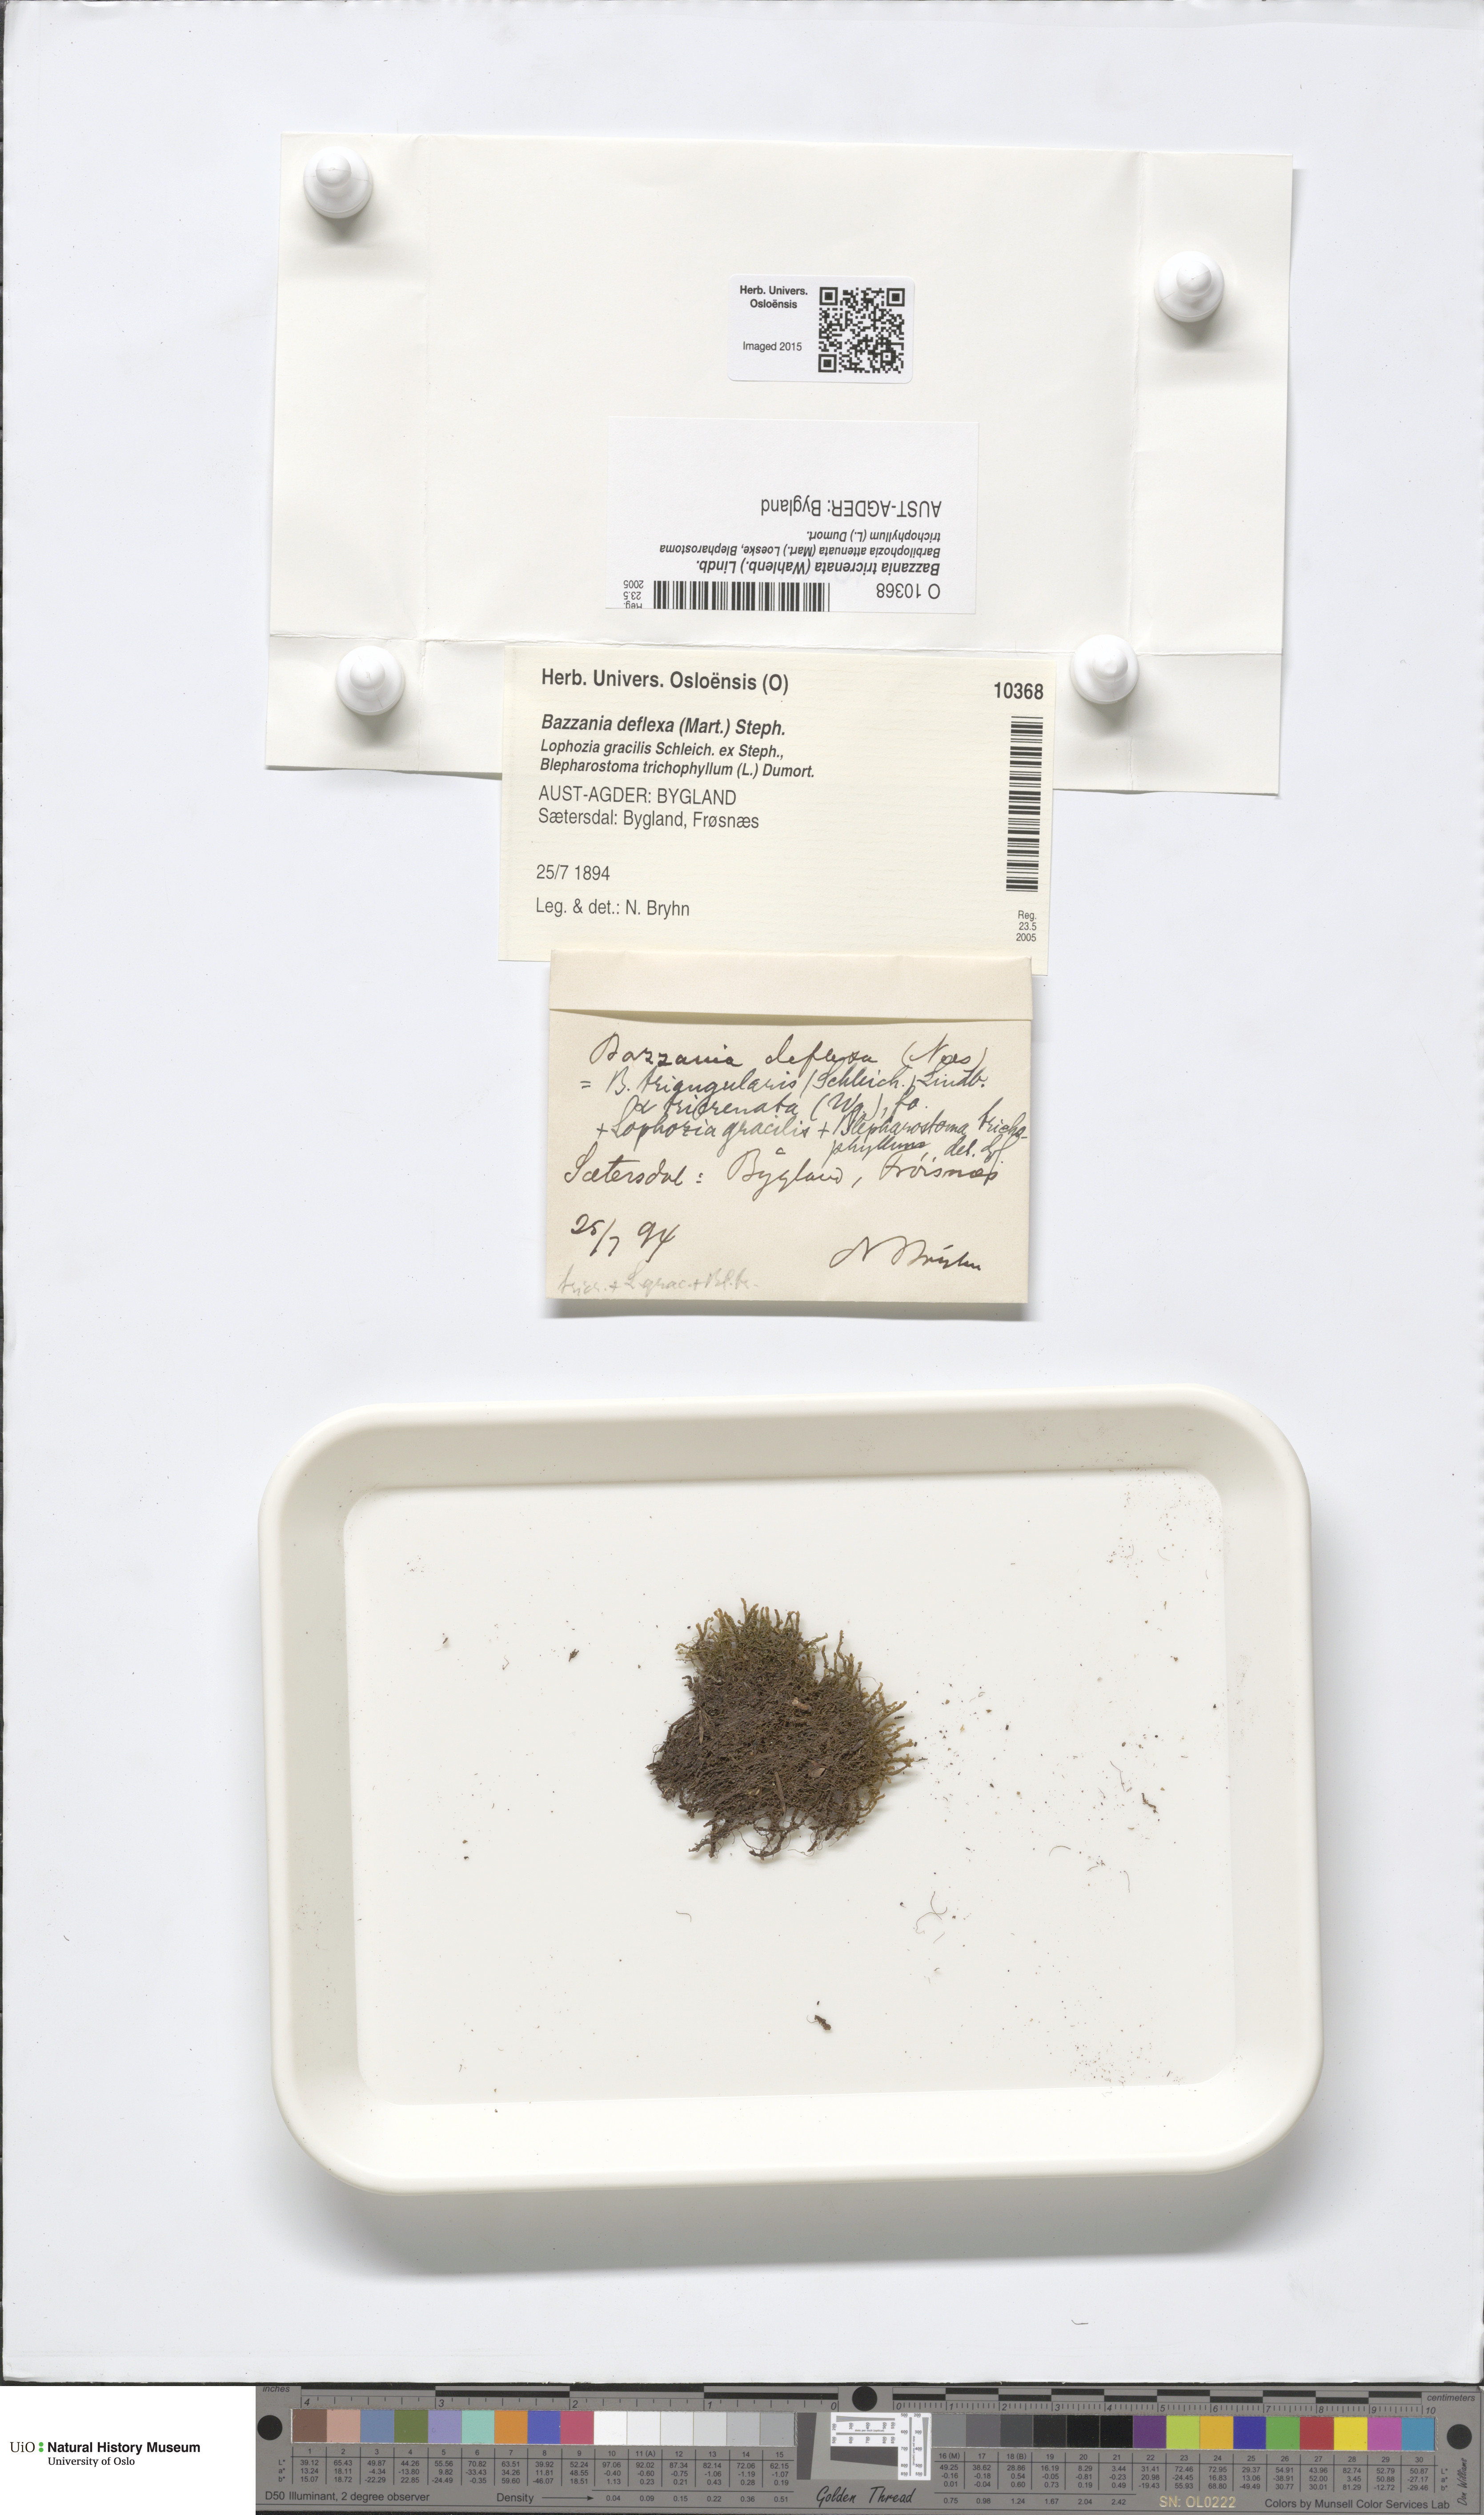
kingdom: Plantae
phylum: Marchantiophyta
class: Jungermanniopsida
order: Jungermanniales
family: Lepidoziaceae
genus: Bazzania
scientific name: Bazzania tricrenata
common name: Lesser whipwort
